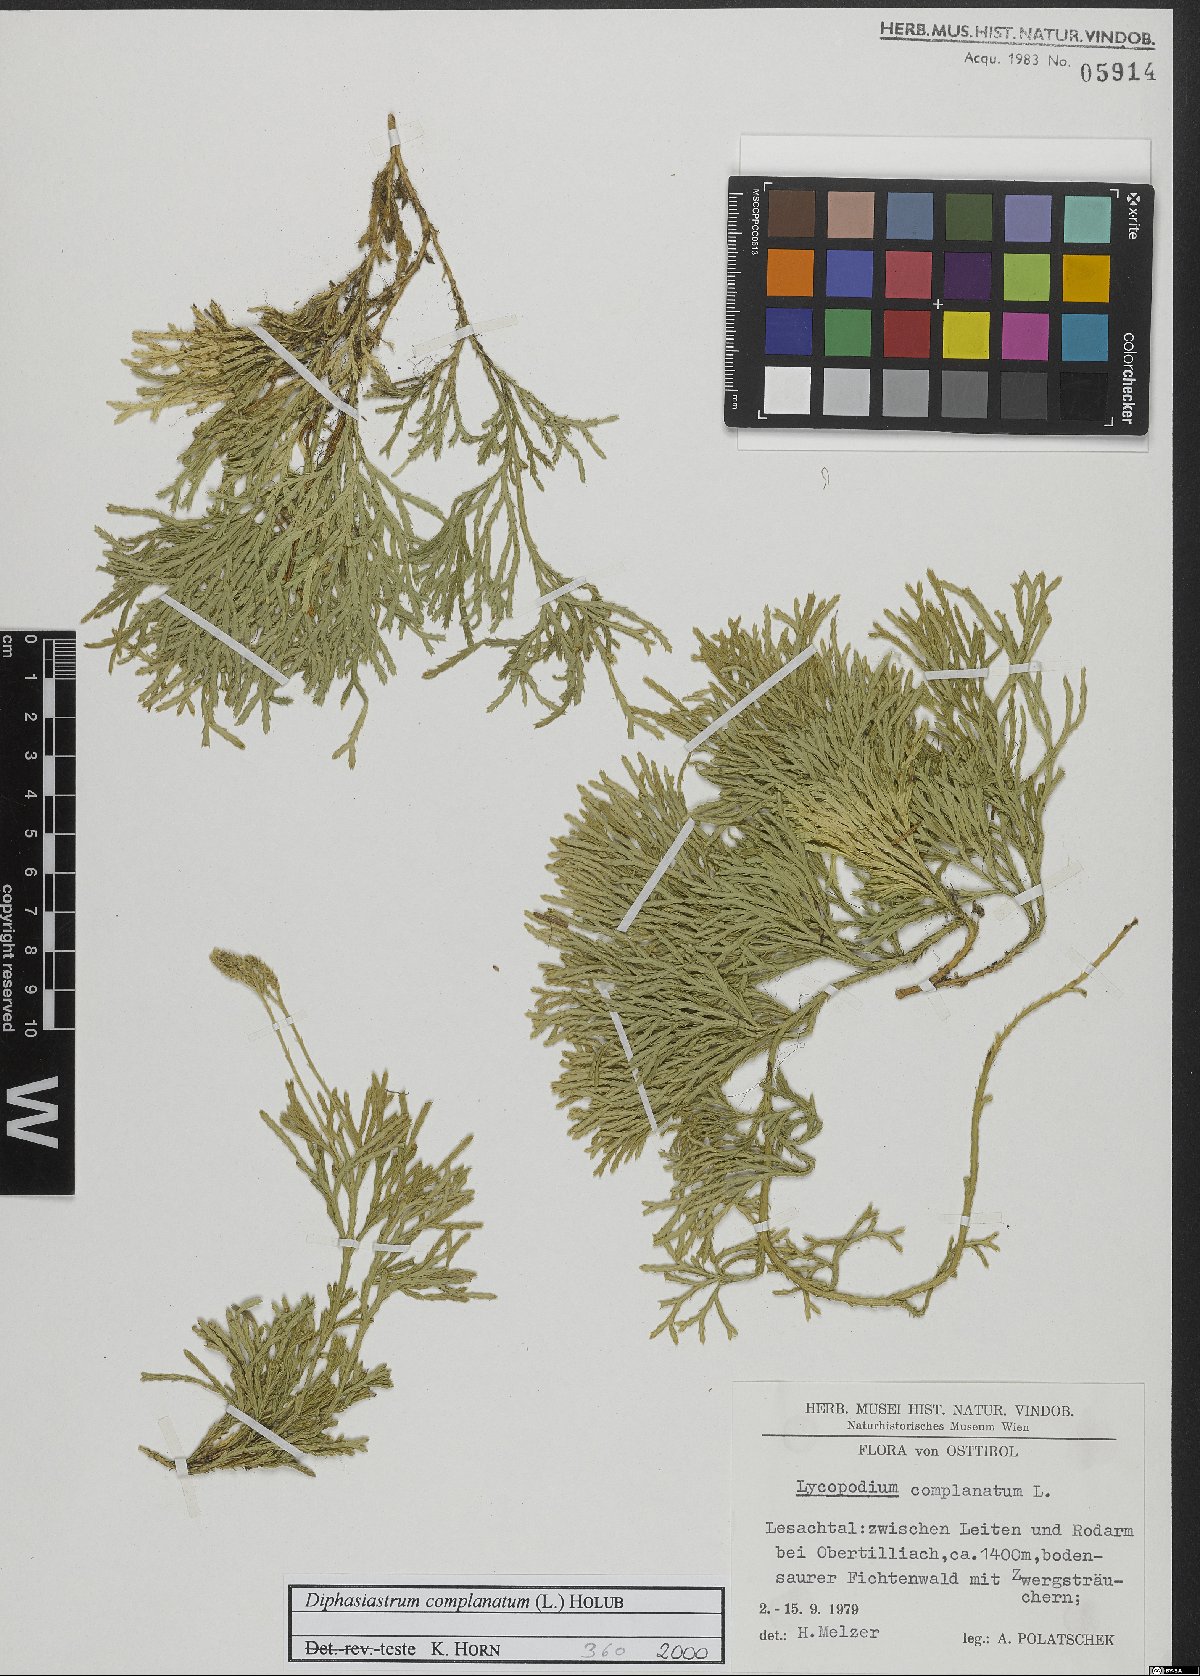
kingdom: Plantae
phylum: Tracheophyta
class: Lycopodiopsida
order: Lycopodiales
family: Lycopodiaceae
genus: Diphasiastrum
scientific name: Diphasiastrum complanatum
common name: Northern running-pine
